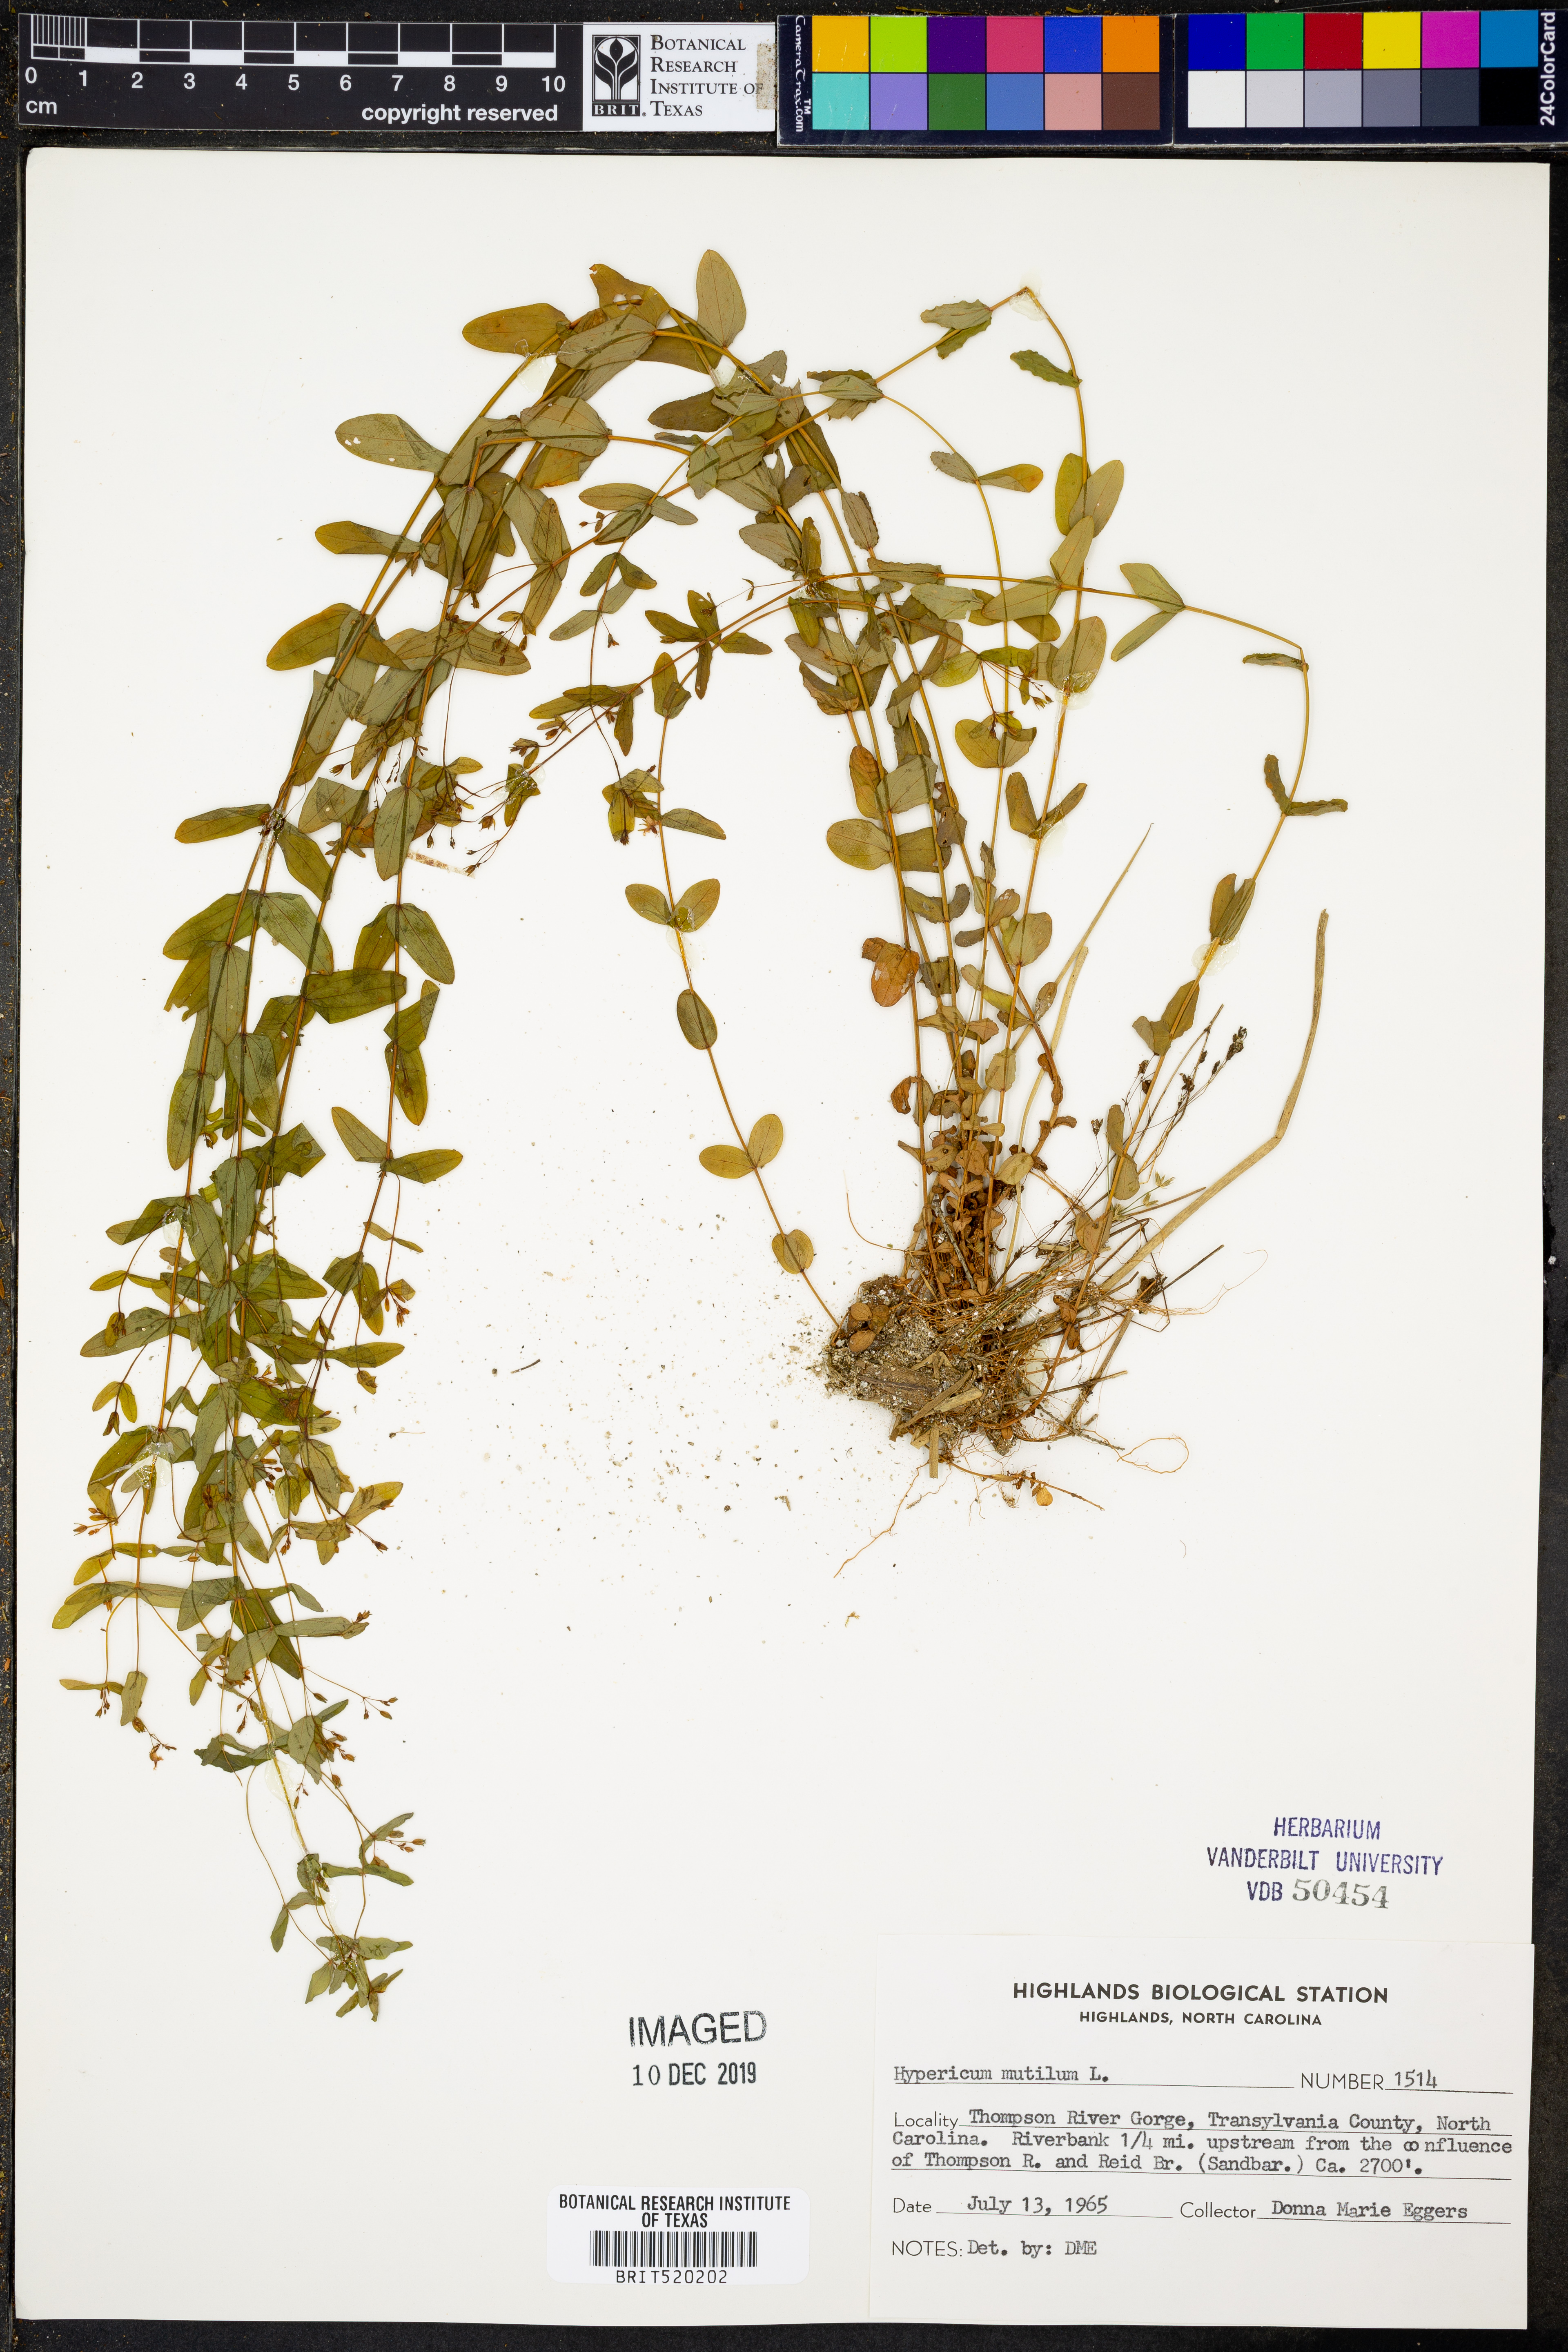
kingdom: Plantae
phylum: Tracheophyta
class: Magnoliopsida
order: Malpighiales
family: Hypericaceae
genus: Hypericum
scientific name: Hypericum mutilum
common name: Dwarf st. john's-wort
